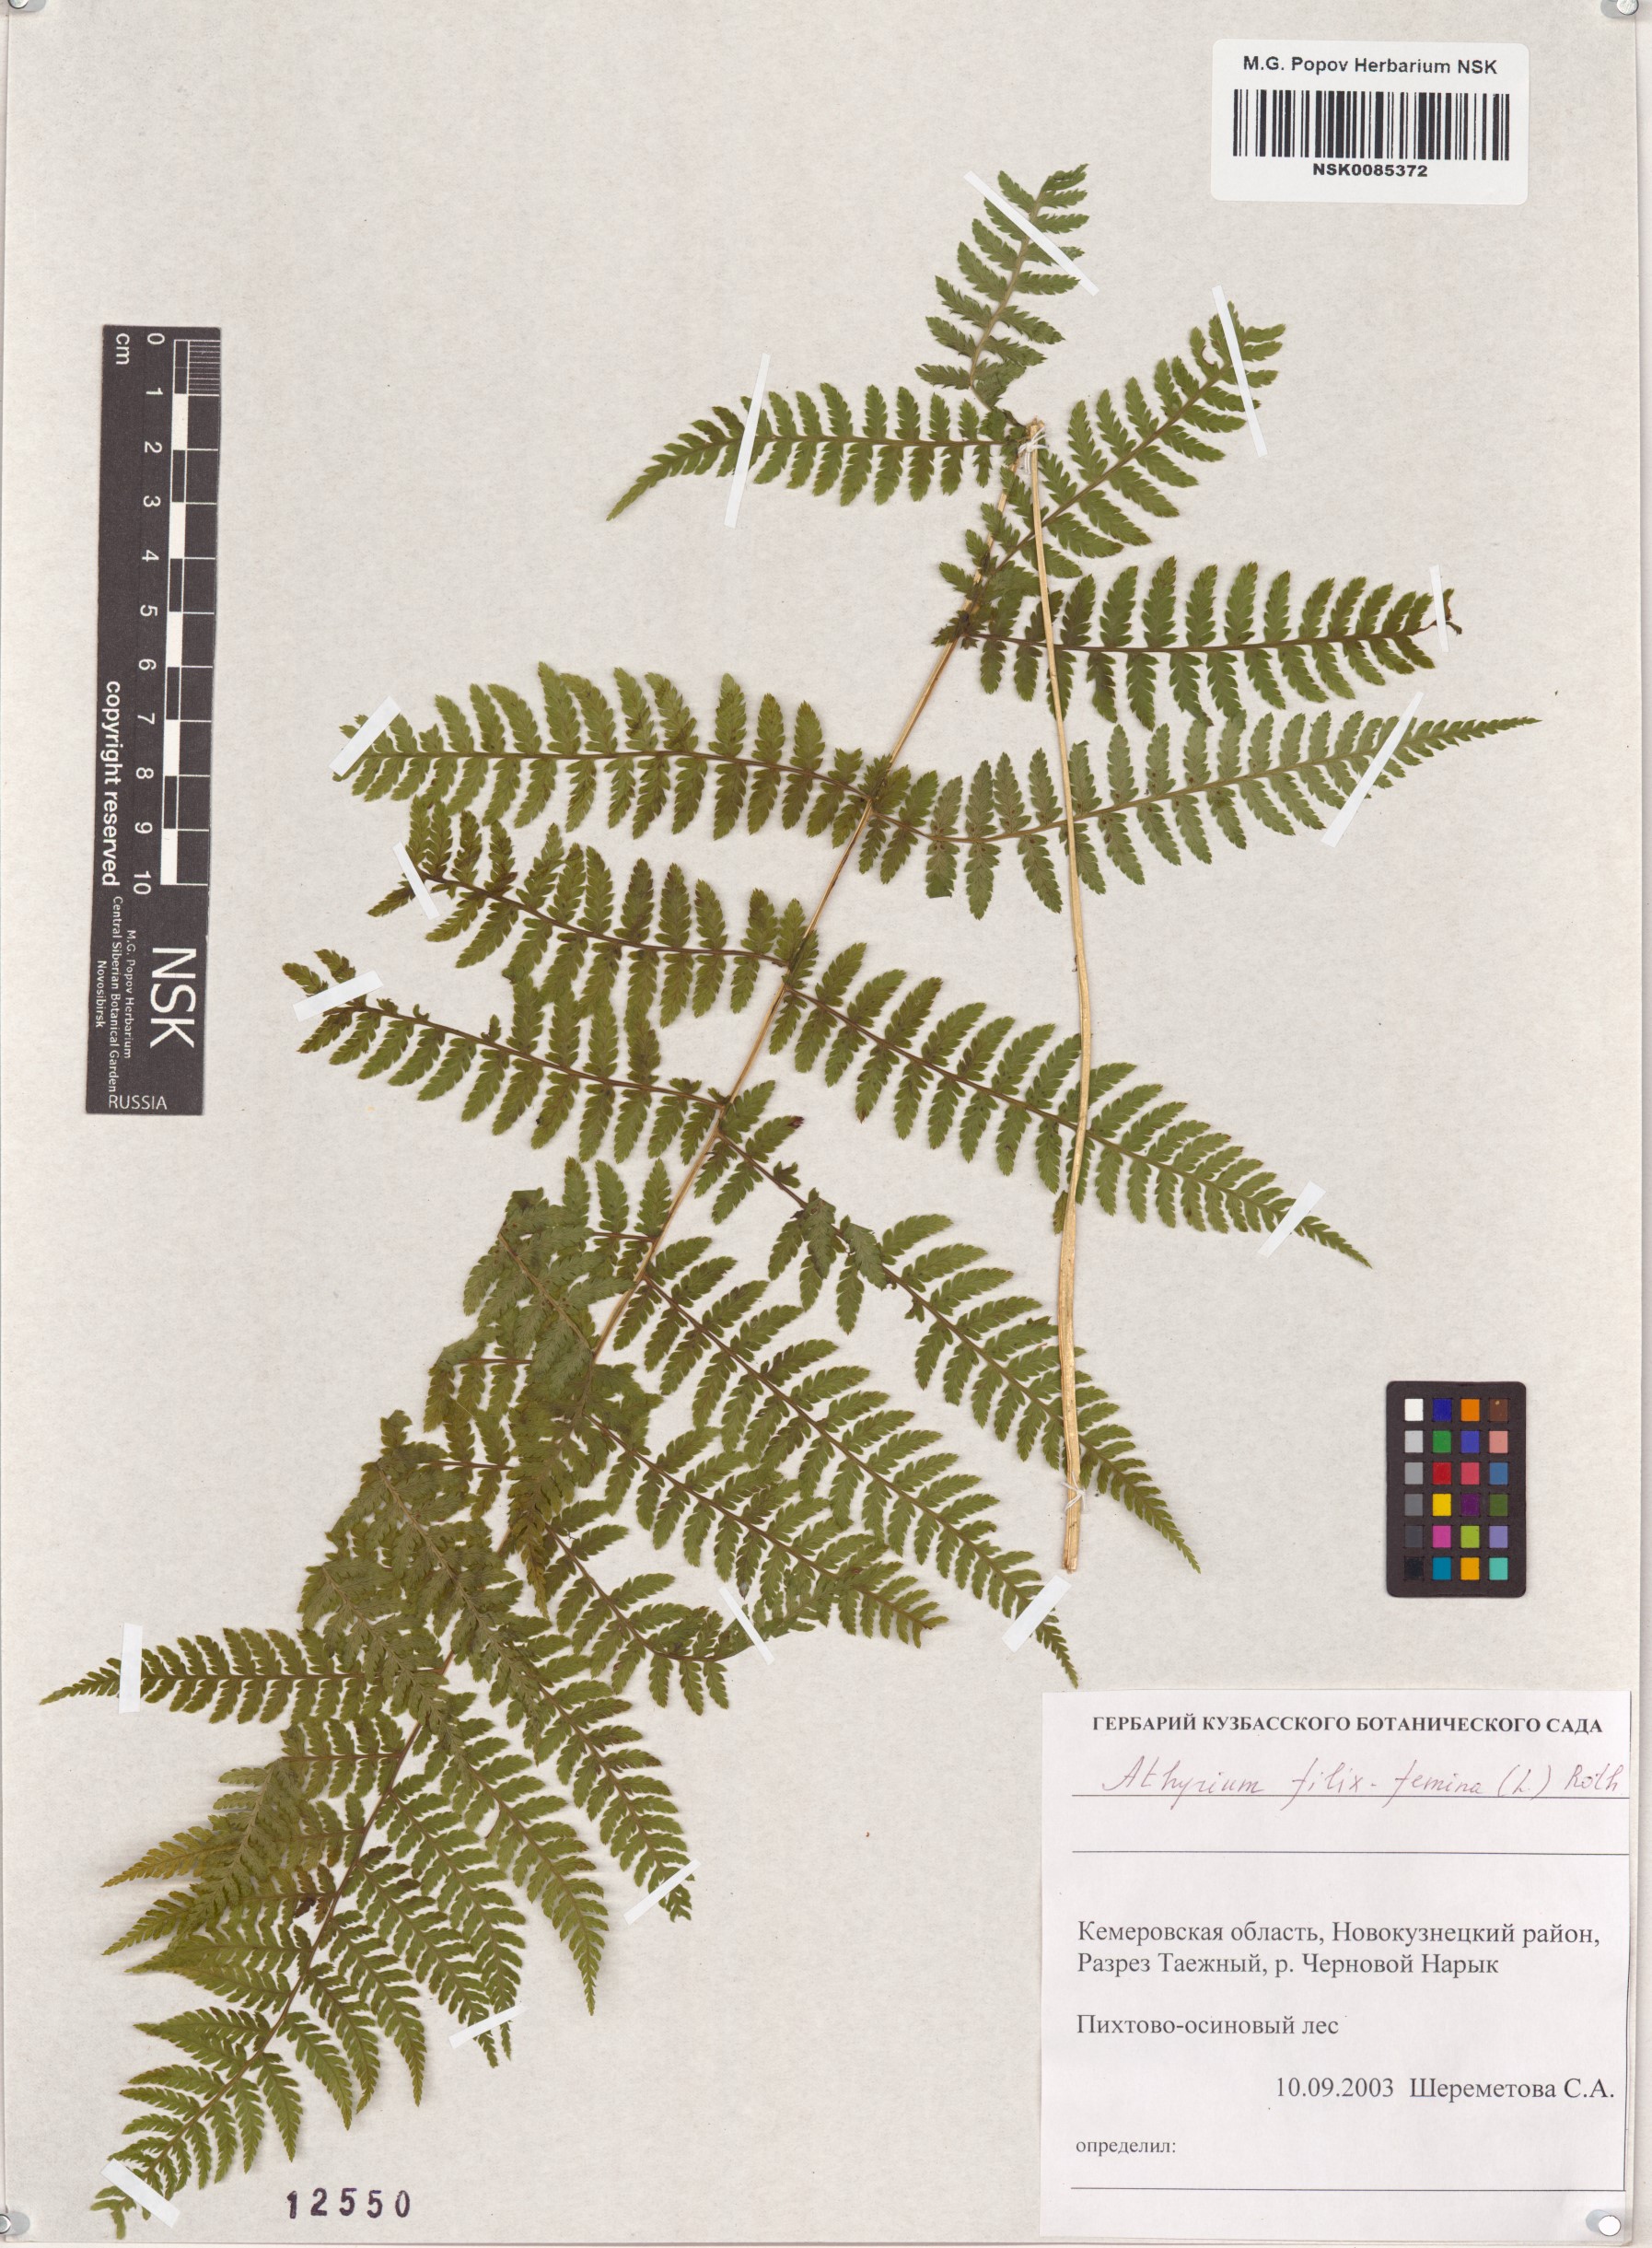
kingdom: Plantae
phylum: Tracheophyta
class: Polypodiopsida
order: Polypodiales
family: Athyriaceae
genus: Athyrium
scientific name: Athyrium filix-femina
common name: Lady fern
